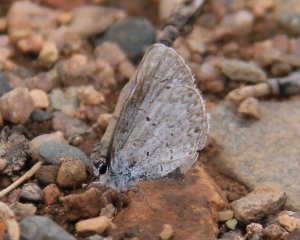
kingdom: Animalia
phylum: Arthropoda
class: Insecta
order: Lepidoptera
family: Lycaenidae
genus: Celastrina
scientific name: Celastrina
